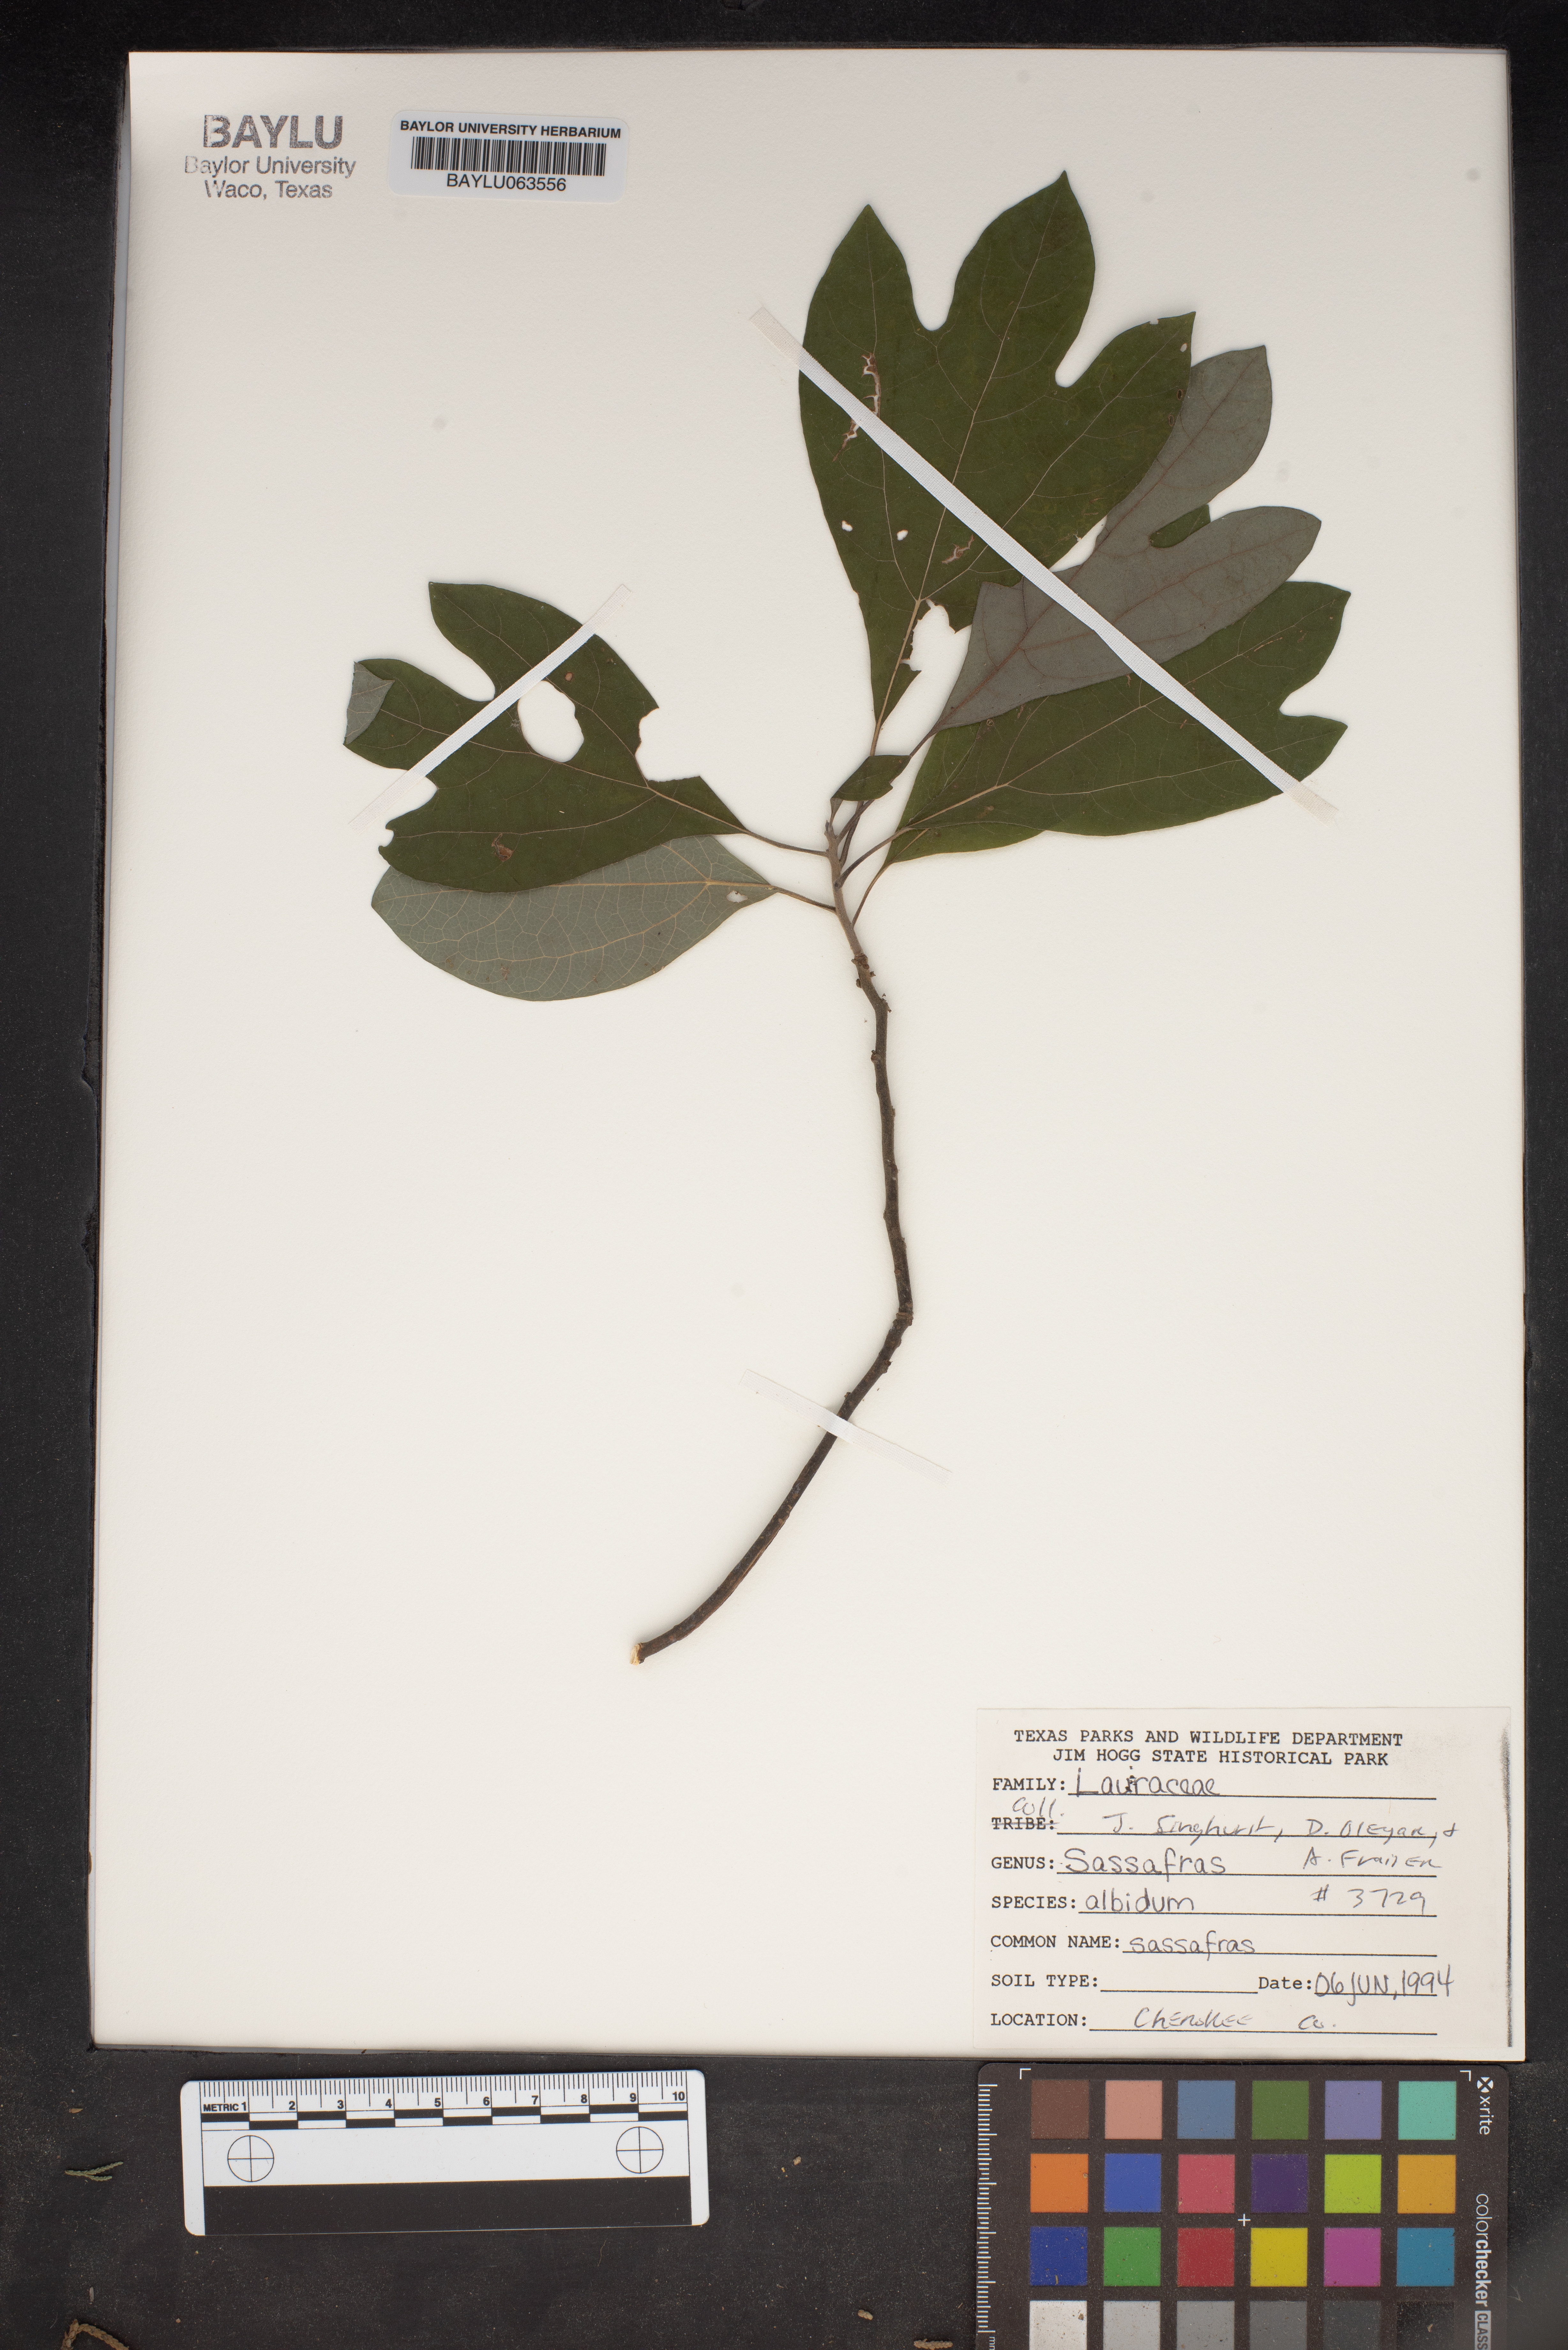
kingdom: Plantae
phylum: Tracheophyta
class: Magnoliopsida
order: Laurales
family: Lauraceae
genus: Sassafras
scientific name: Sassafras albidum
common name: Sassafras
